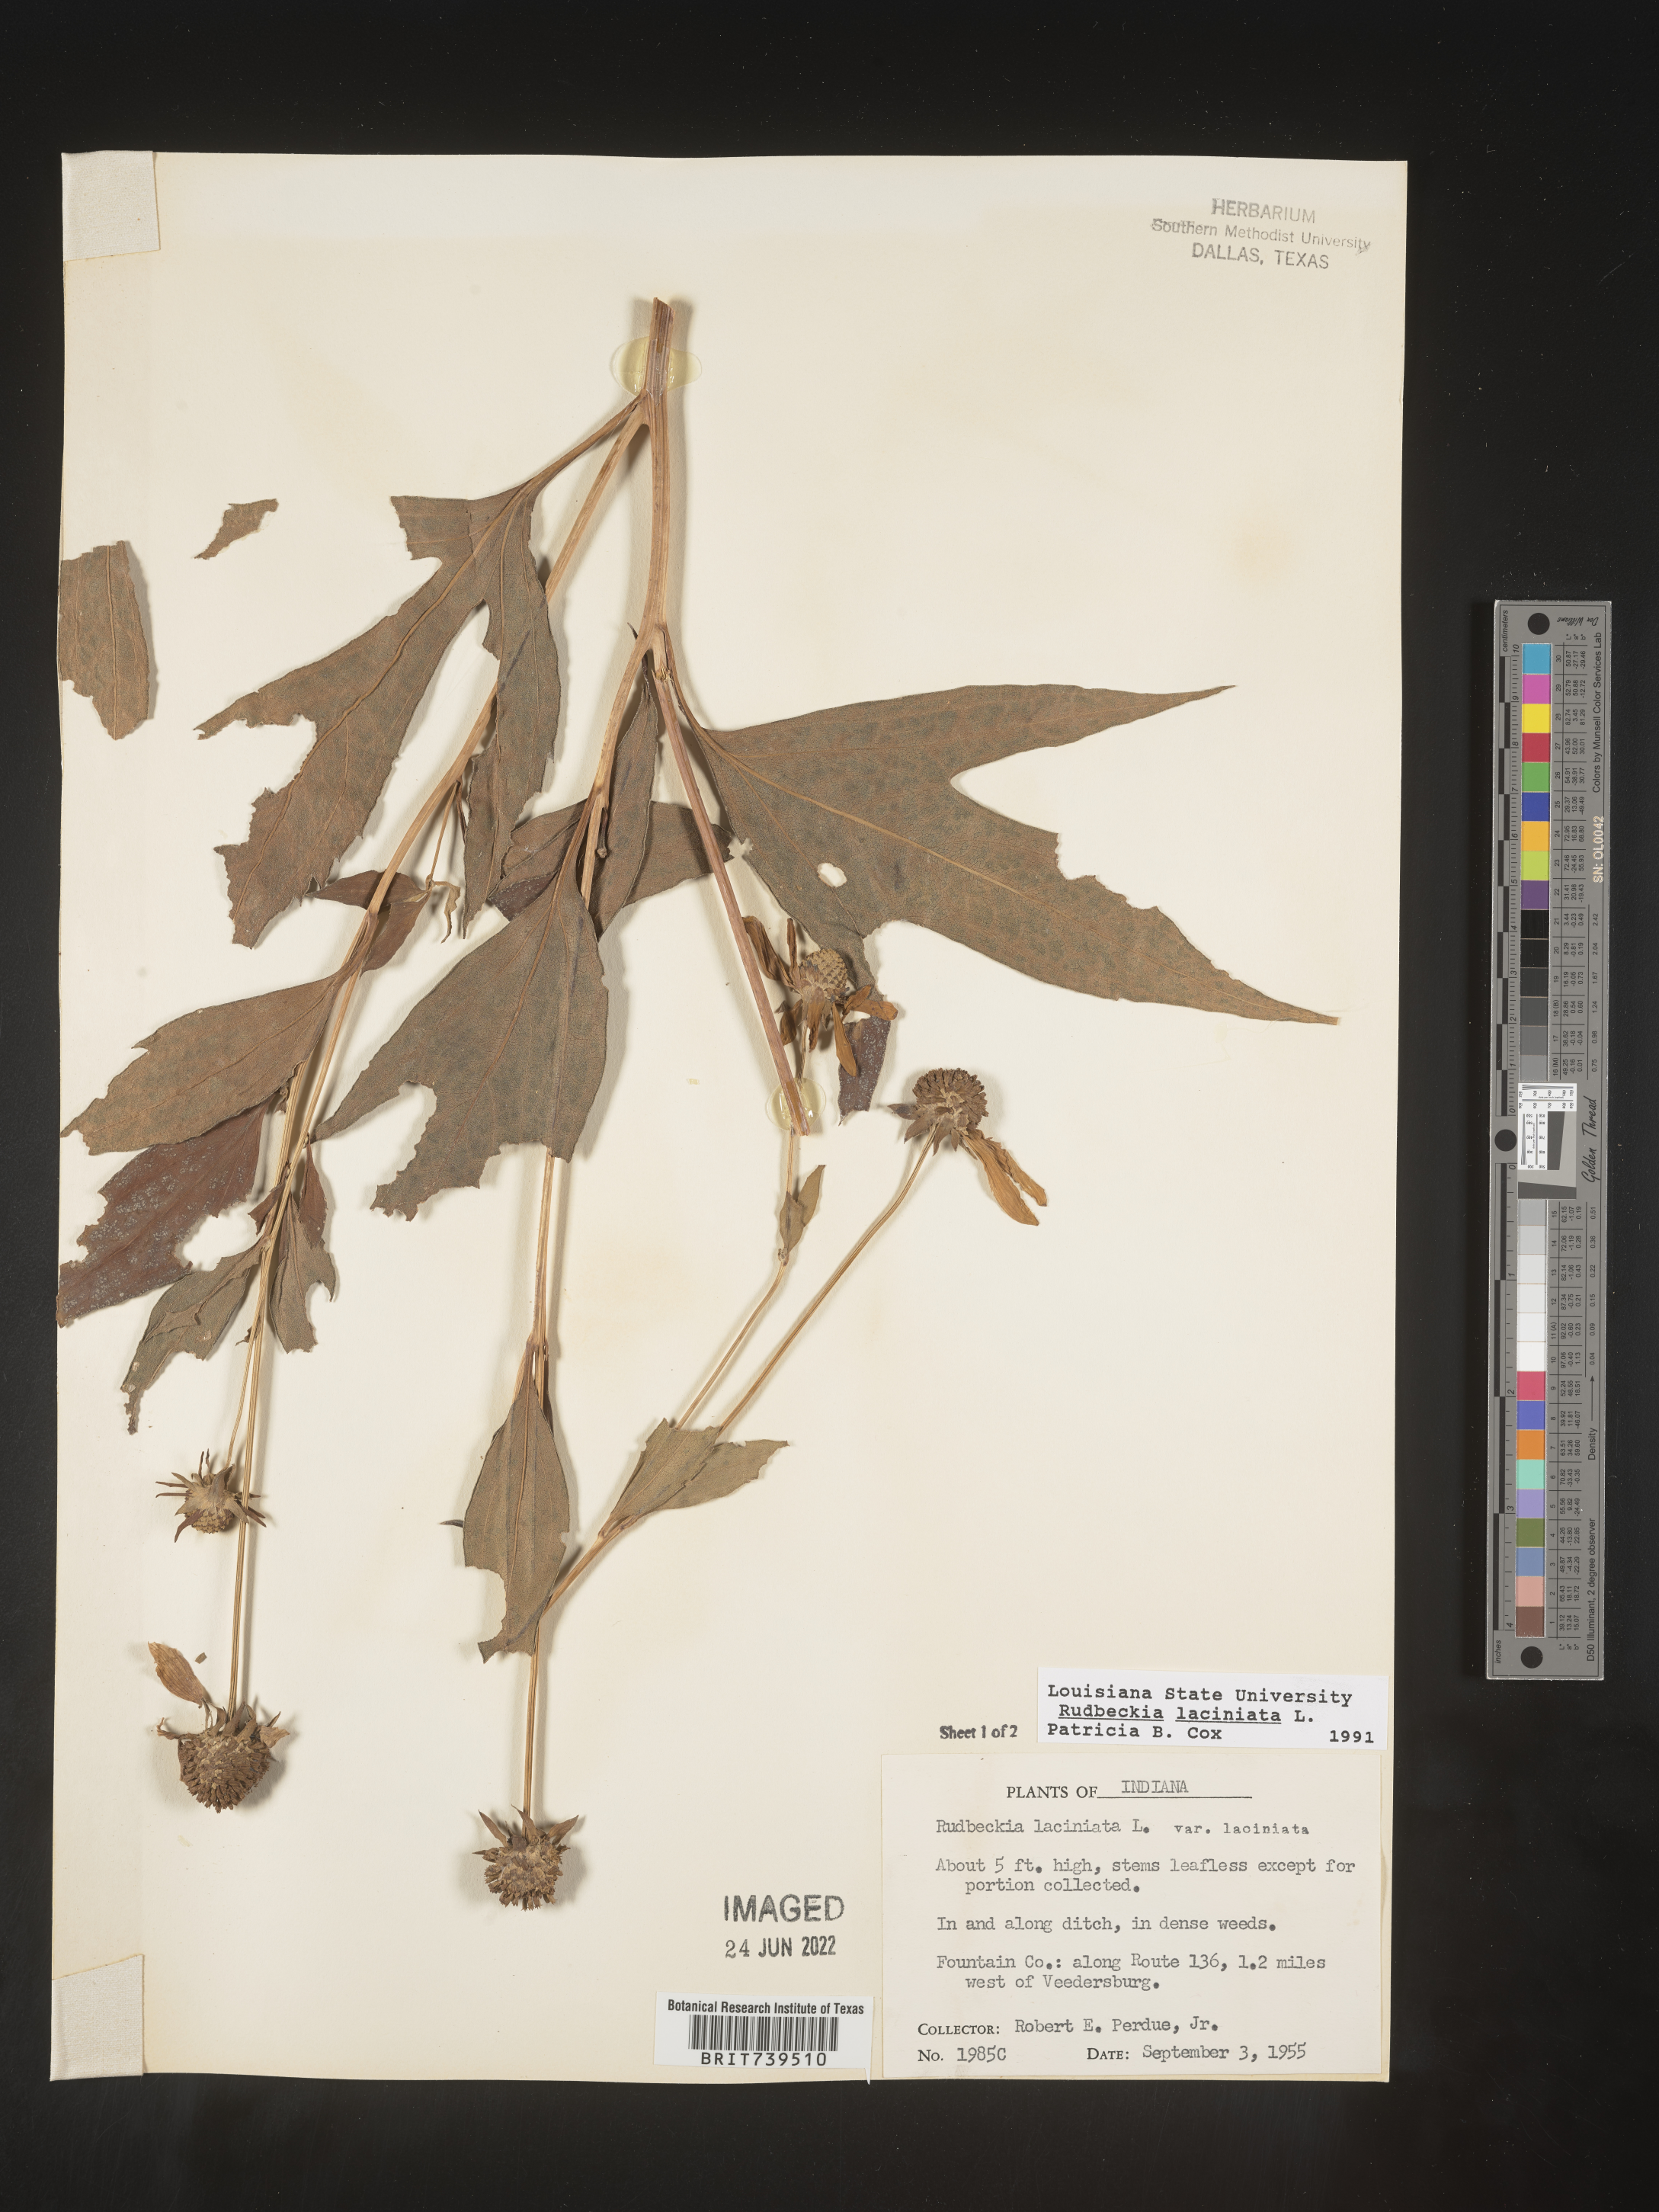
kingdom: Plantae
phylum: Tracheophyta
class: Magnoliopsida
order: Asterales
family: Asteraceae
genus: Rudbeckia
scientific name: Rudbeckia laciniata
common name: Coneflower
